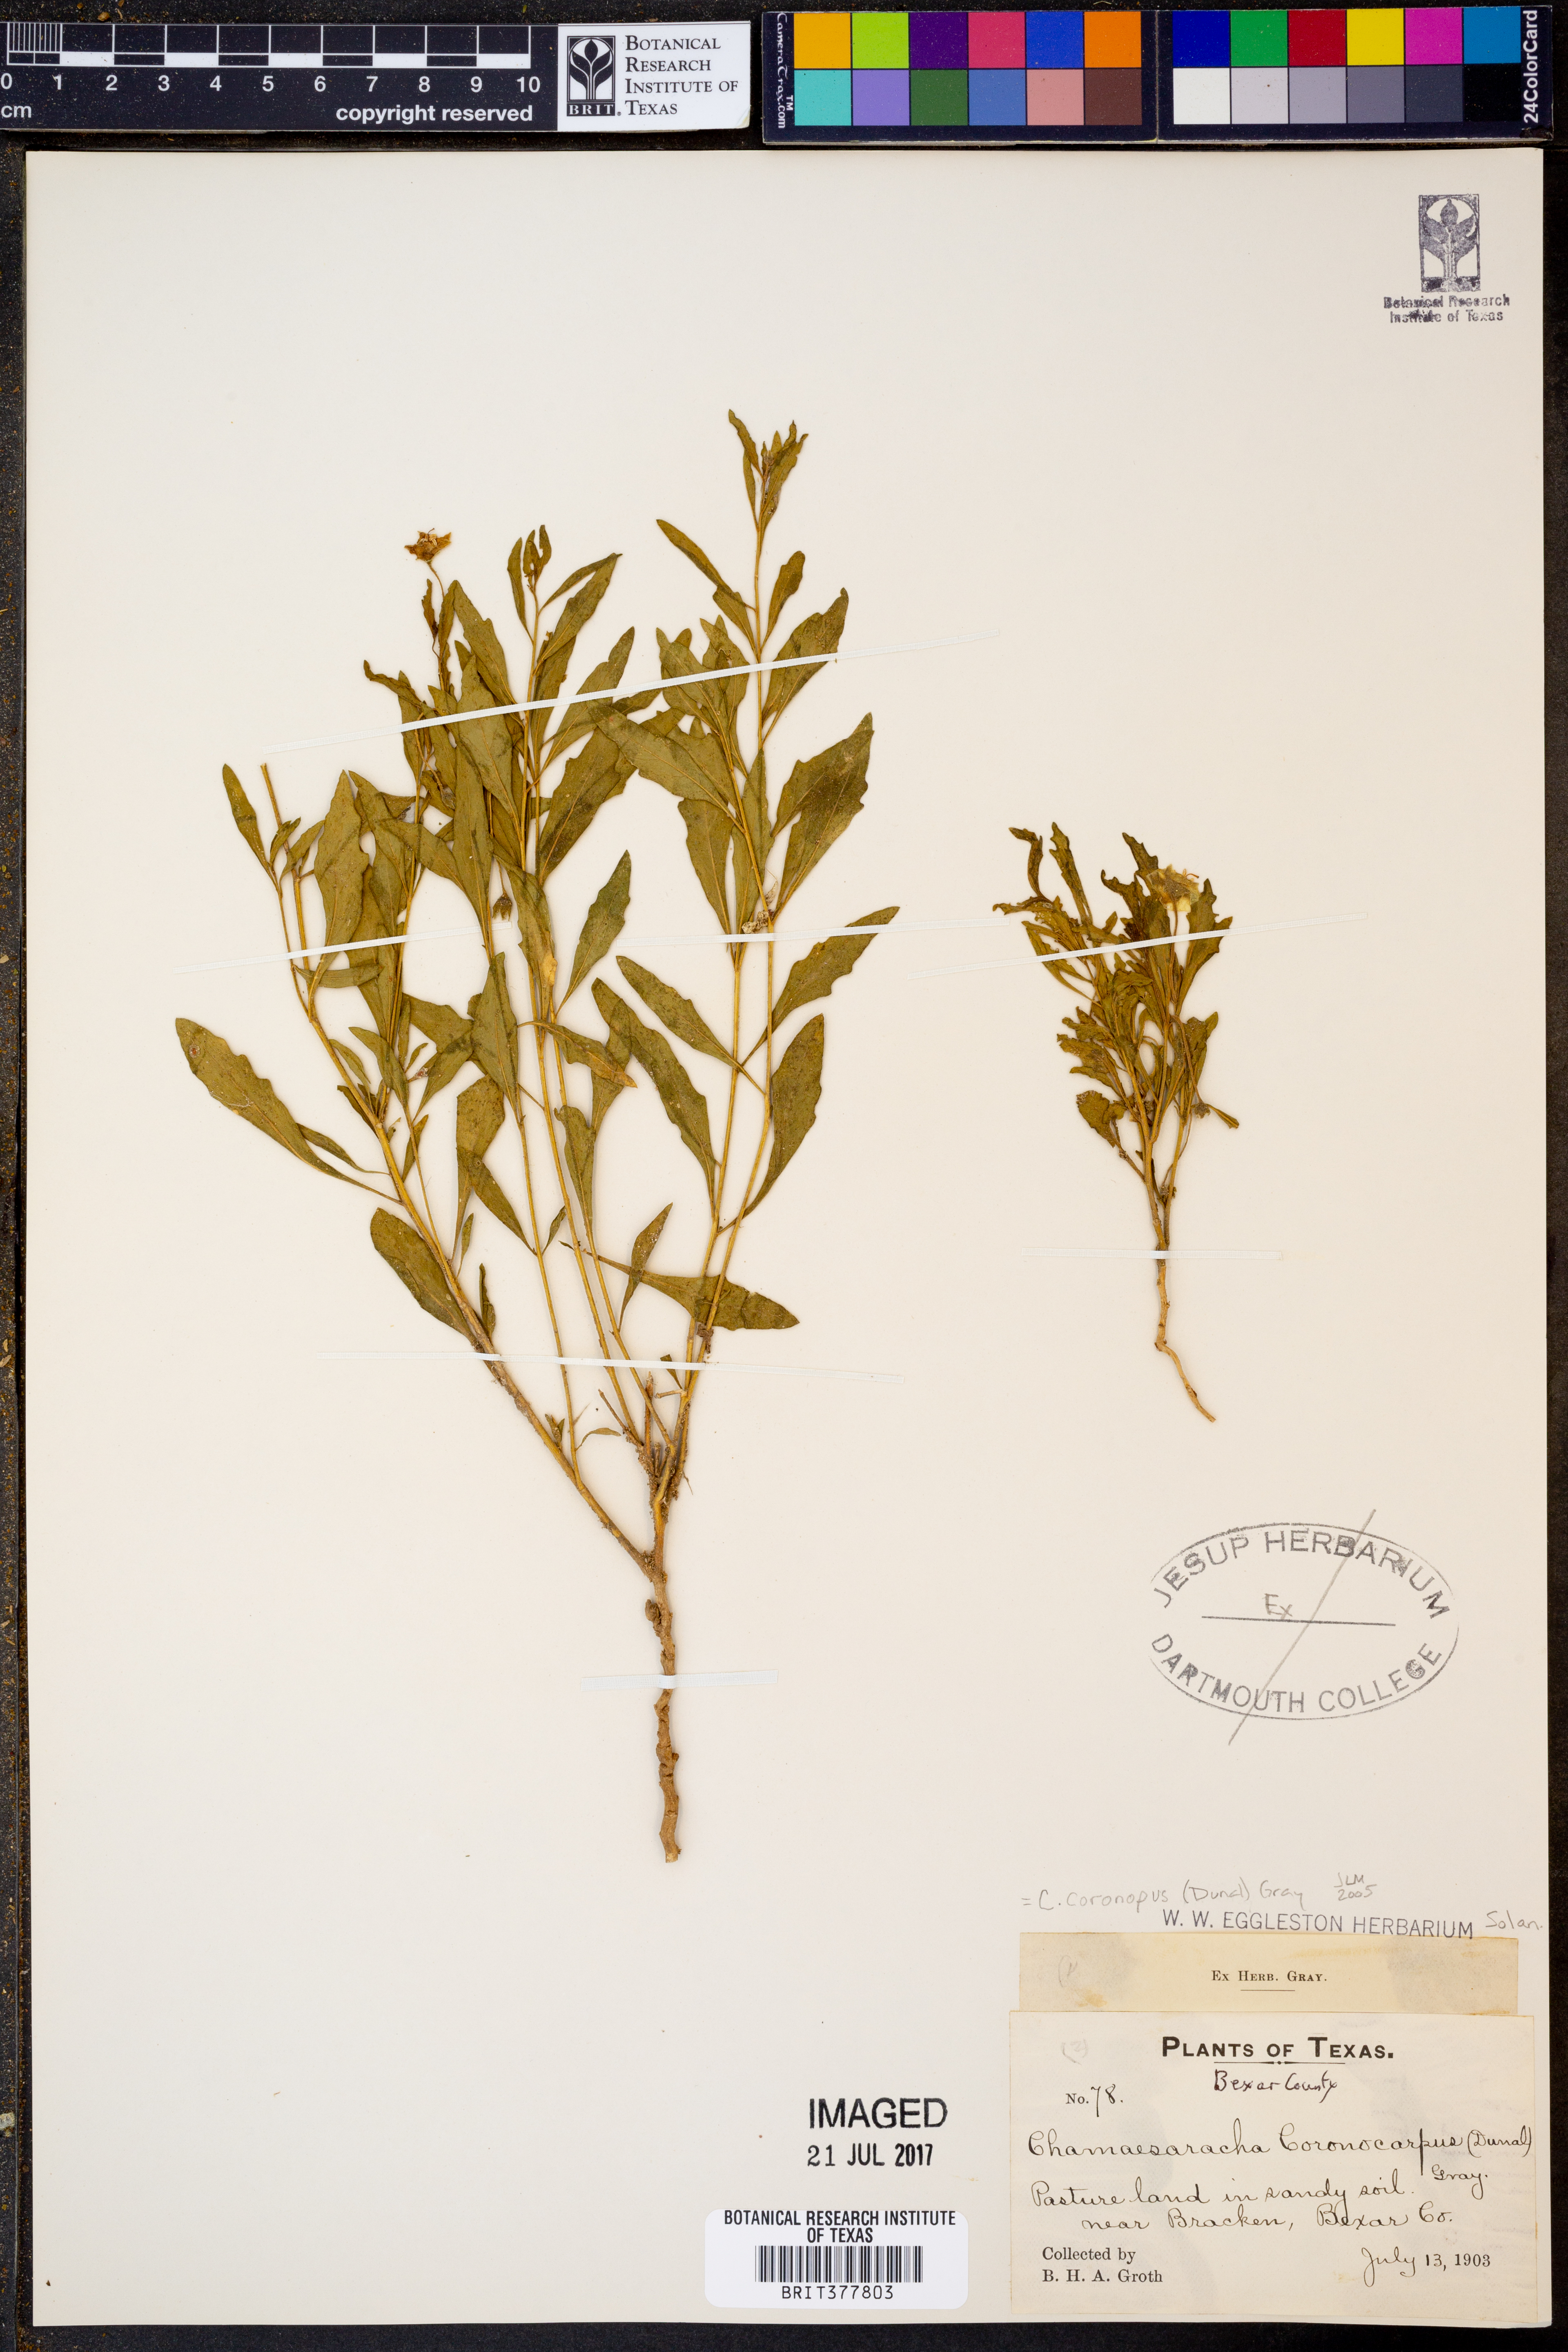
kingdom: Plantae
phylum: Tracheophyta
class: Magnoliopsida
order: Solanales
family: Solanaceae
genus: Chamaesaracha
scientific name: Chamaesaracha coronopus
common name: Smooth chamaesaracha
